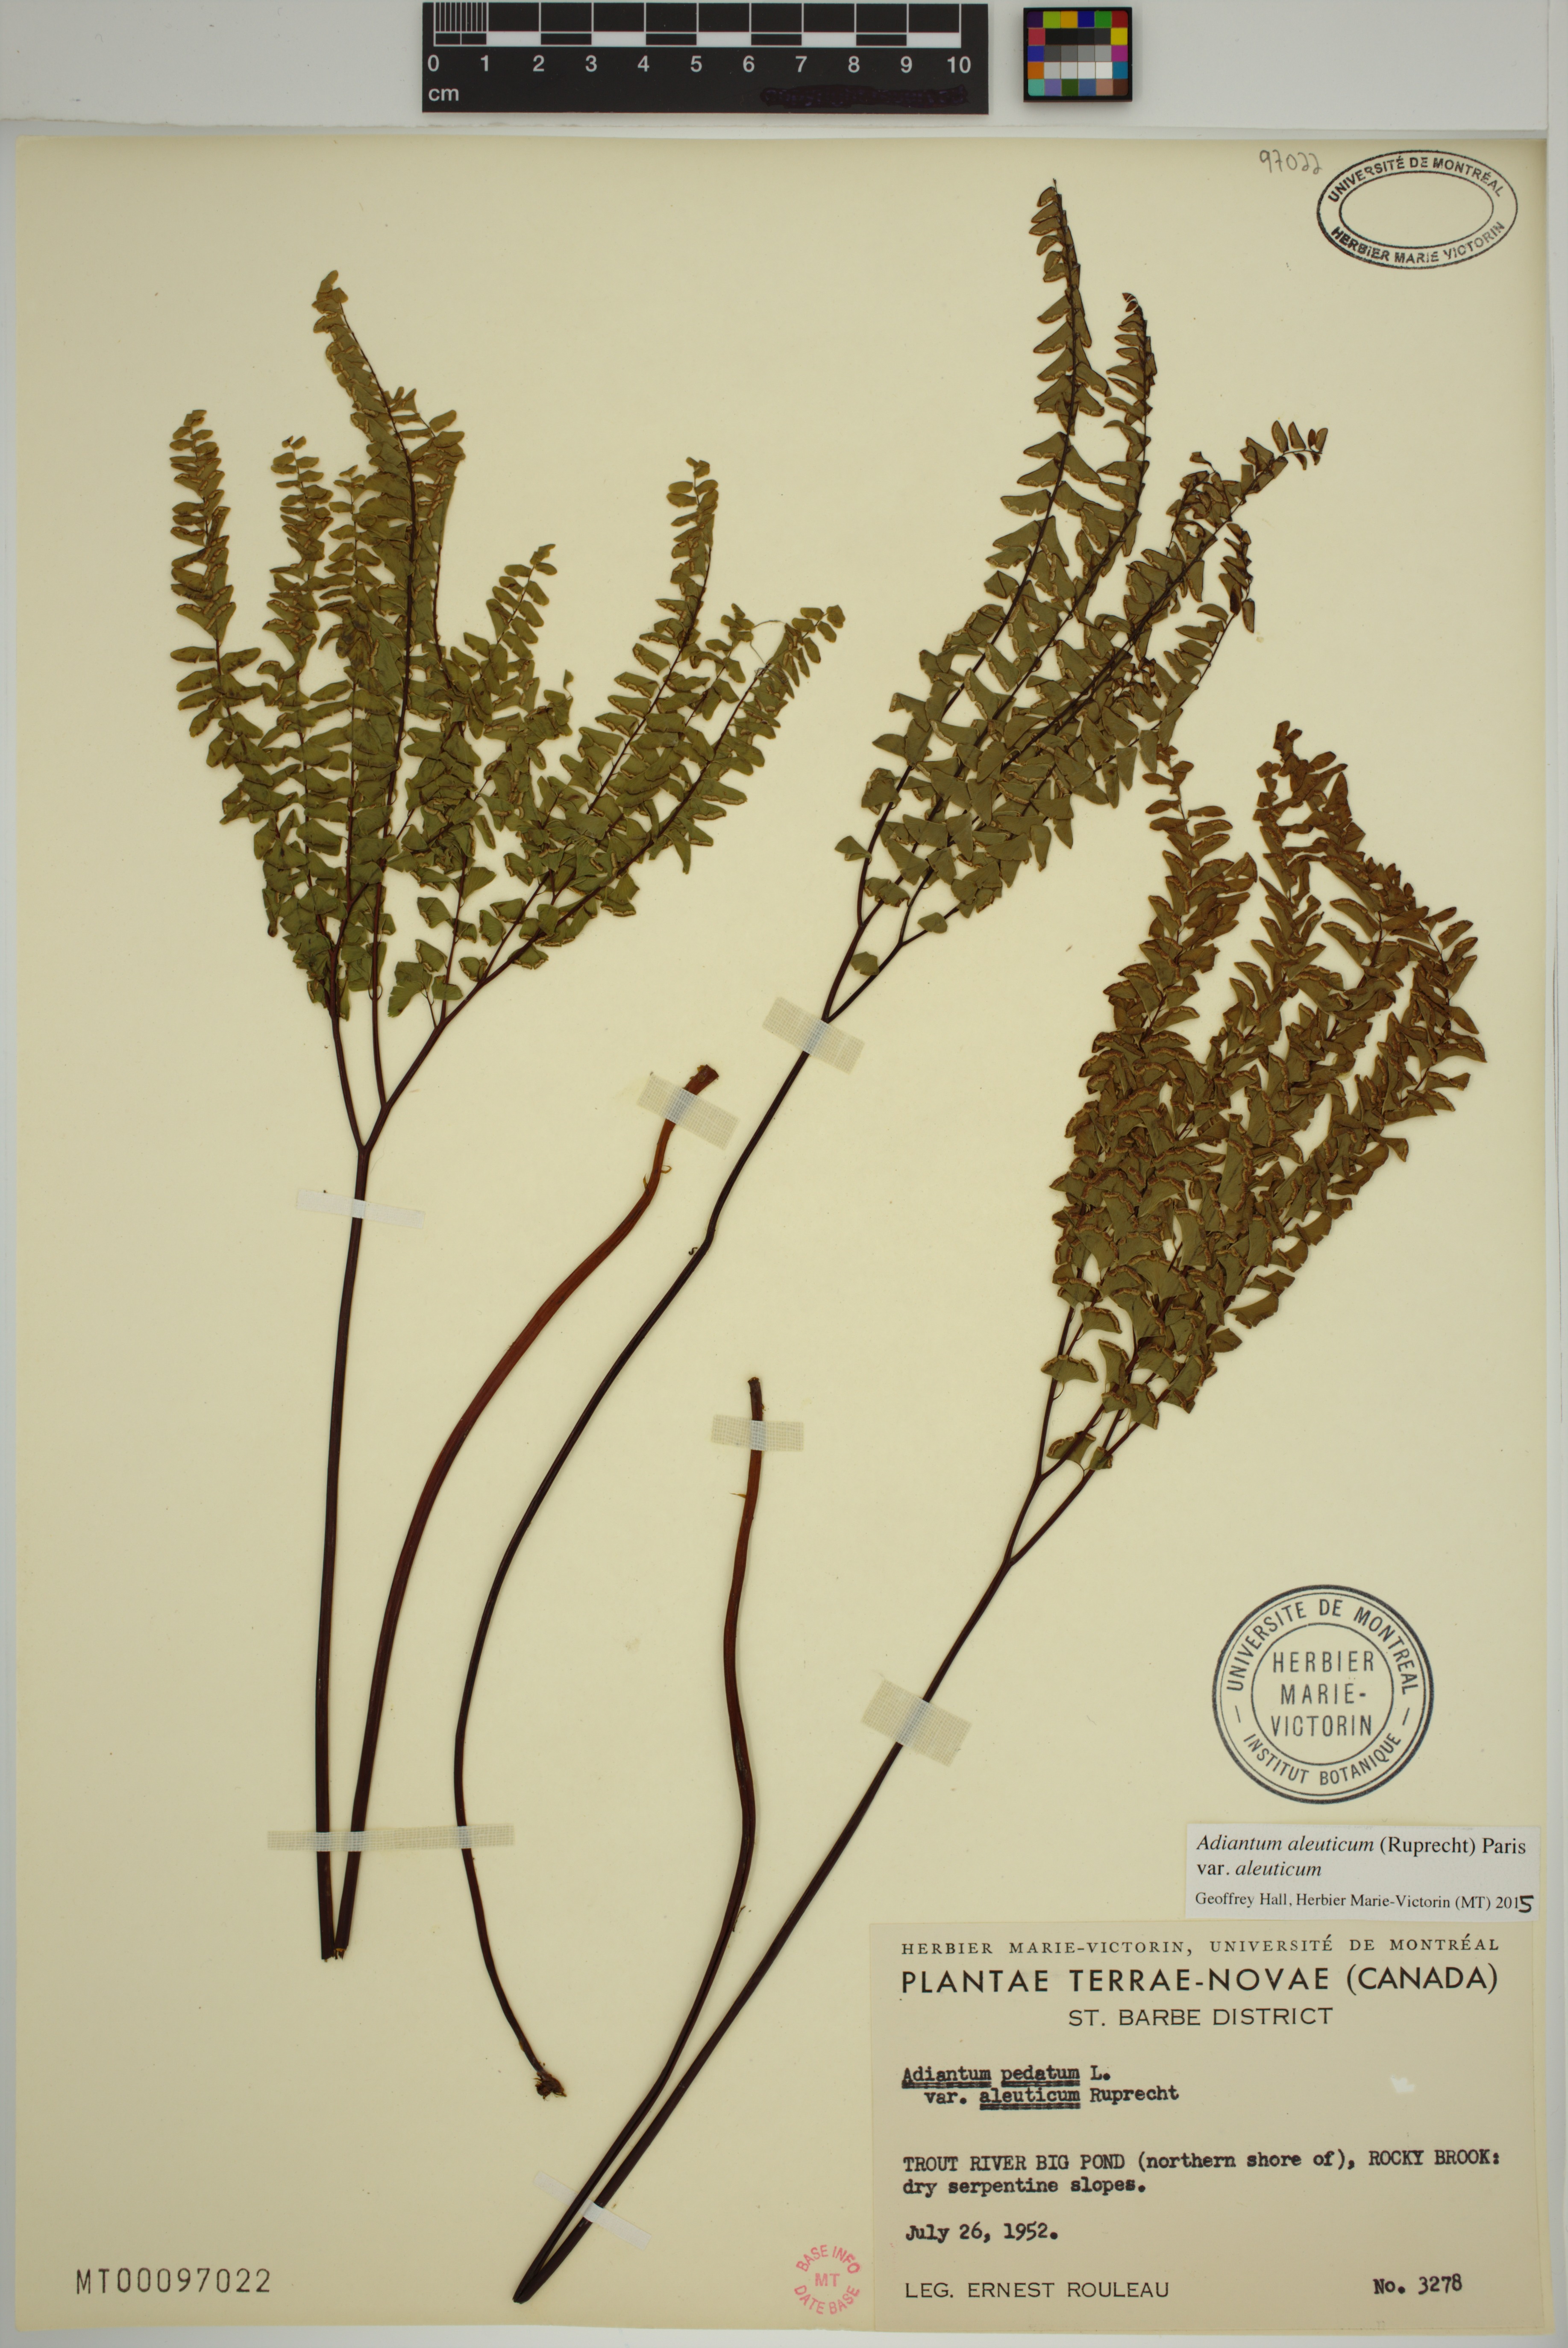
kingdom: Plantae
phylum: Tracheophyta
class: Polypodiopsida
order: Polypodiales
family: Pteridaceae
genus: Adiantum
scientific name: Adiantum aleuticum
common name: Aleutian maidenhair fern
